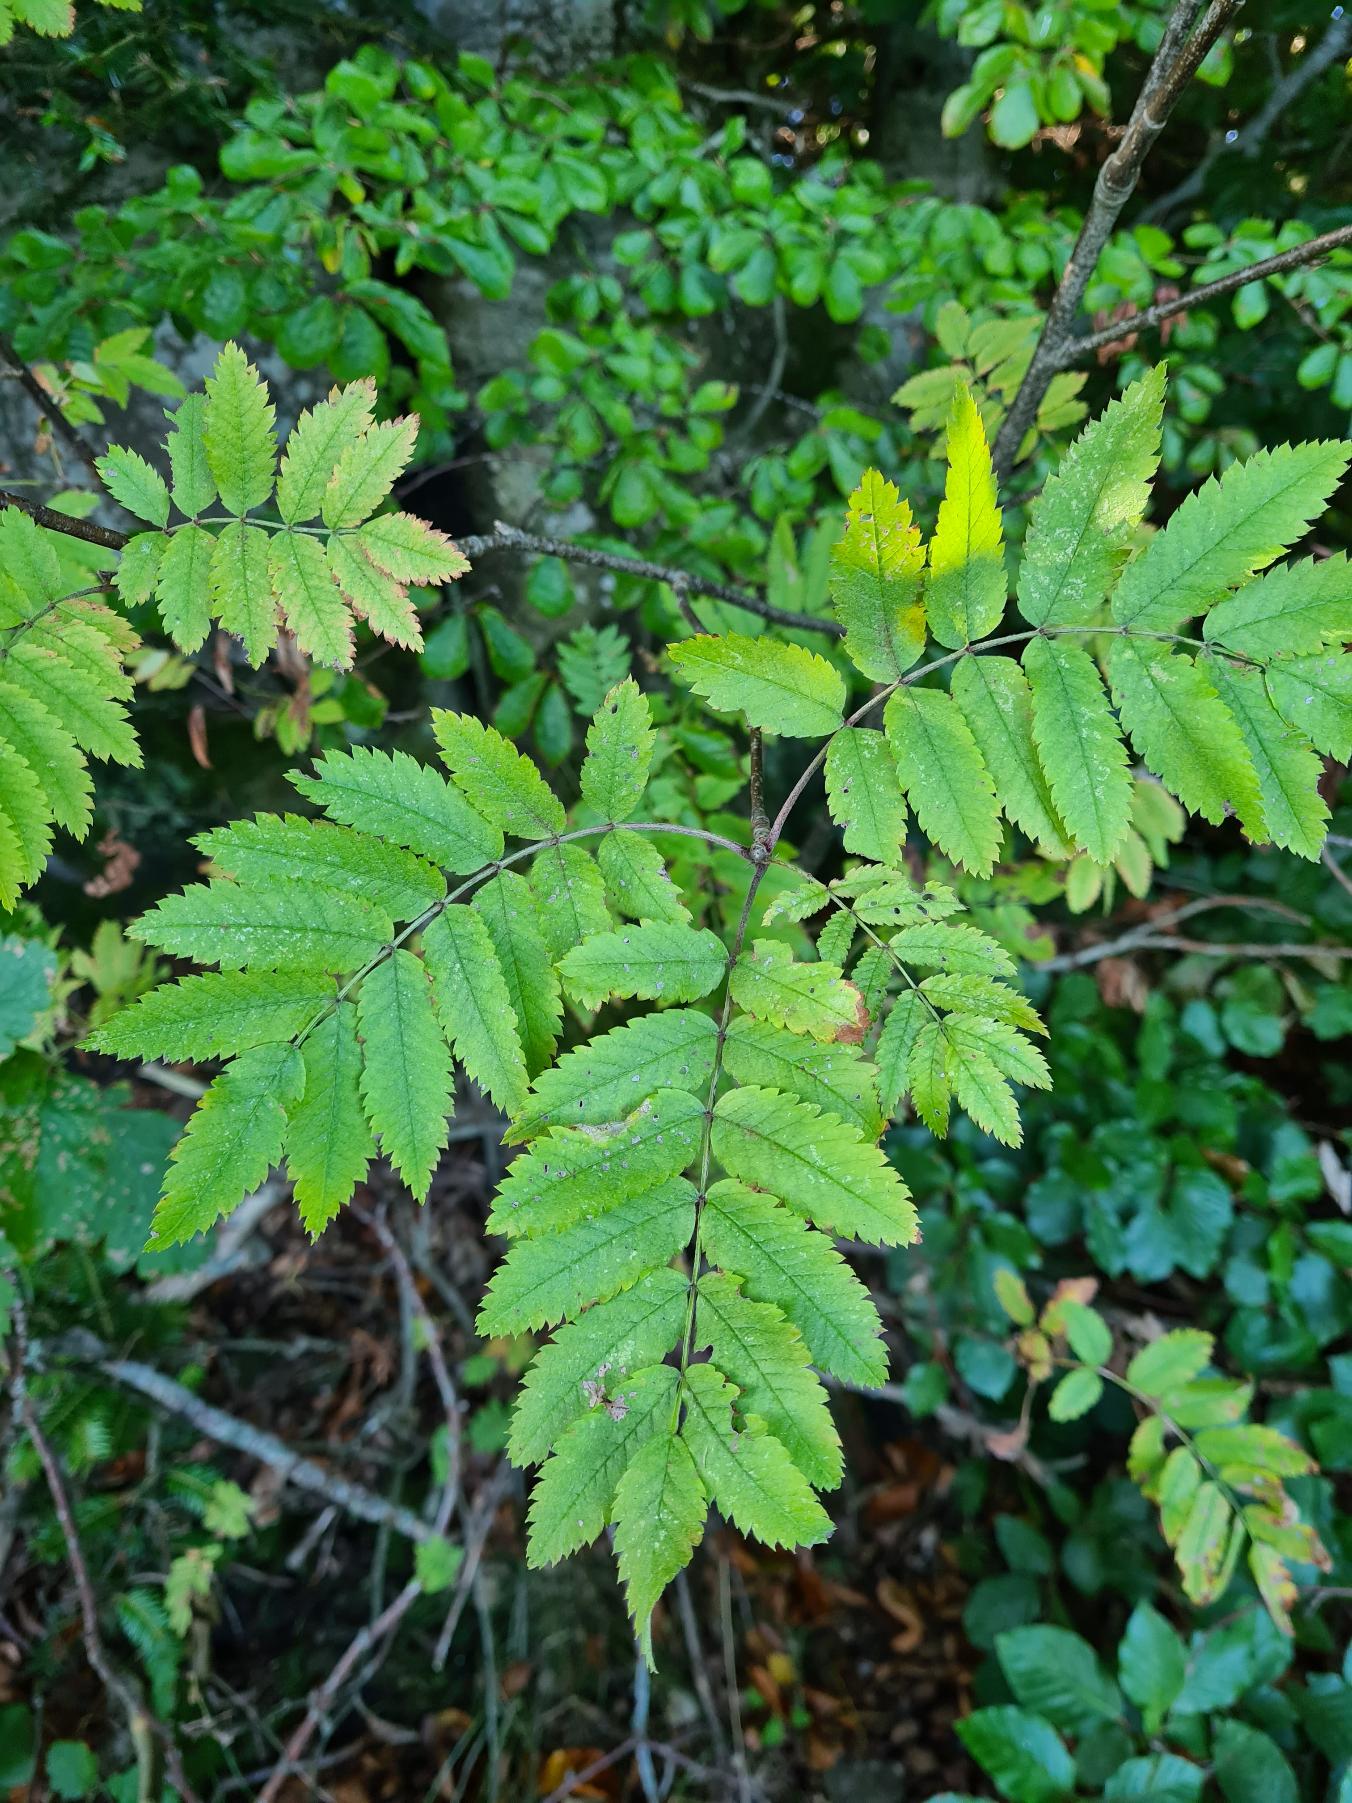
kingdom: Plantae
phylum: Tracheophyta
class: Magnoliopsida
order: Rosales
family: Rosaceae
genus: Sorbus
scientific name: Sorbus aucuparia
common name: Almindelig røn
